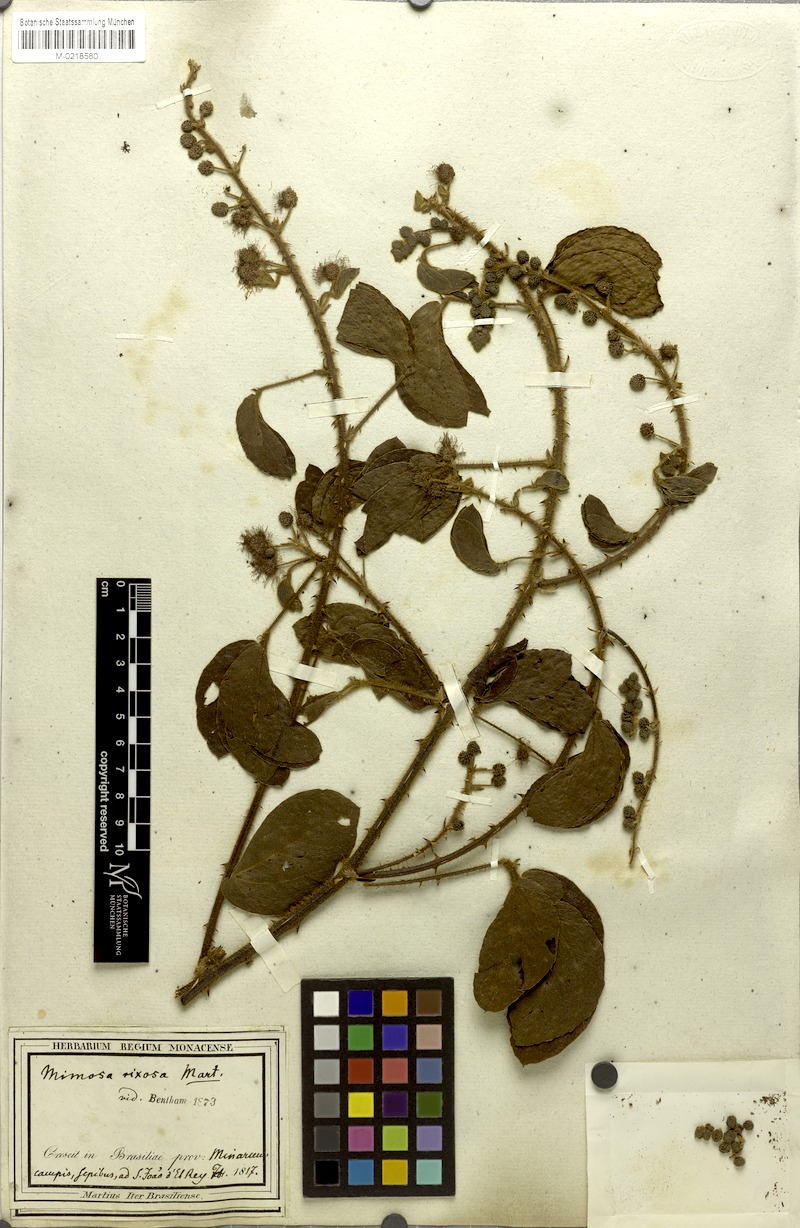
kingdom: Plantae
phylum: Tracheophyta
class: Magnoliopsida
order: Fabales
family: Fabaceae
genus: Mimosa
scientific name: Mimosa debilis
